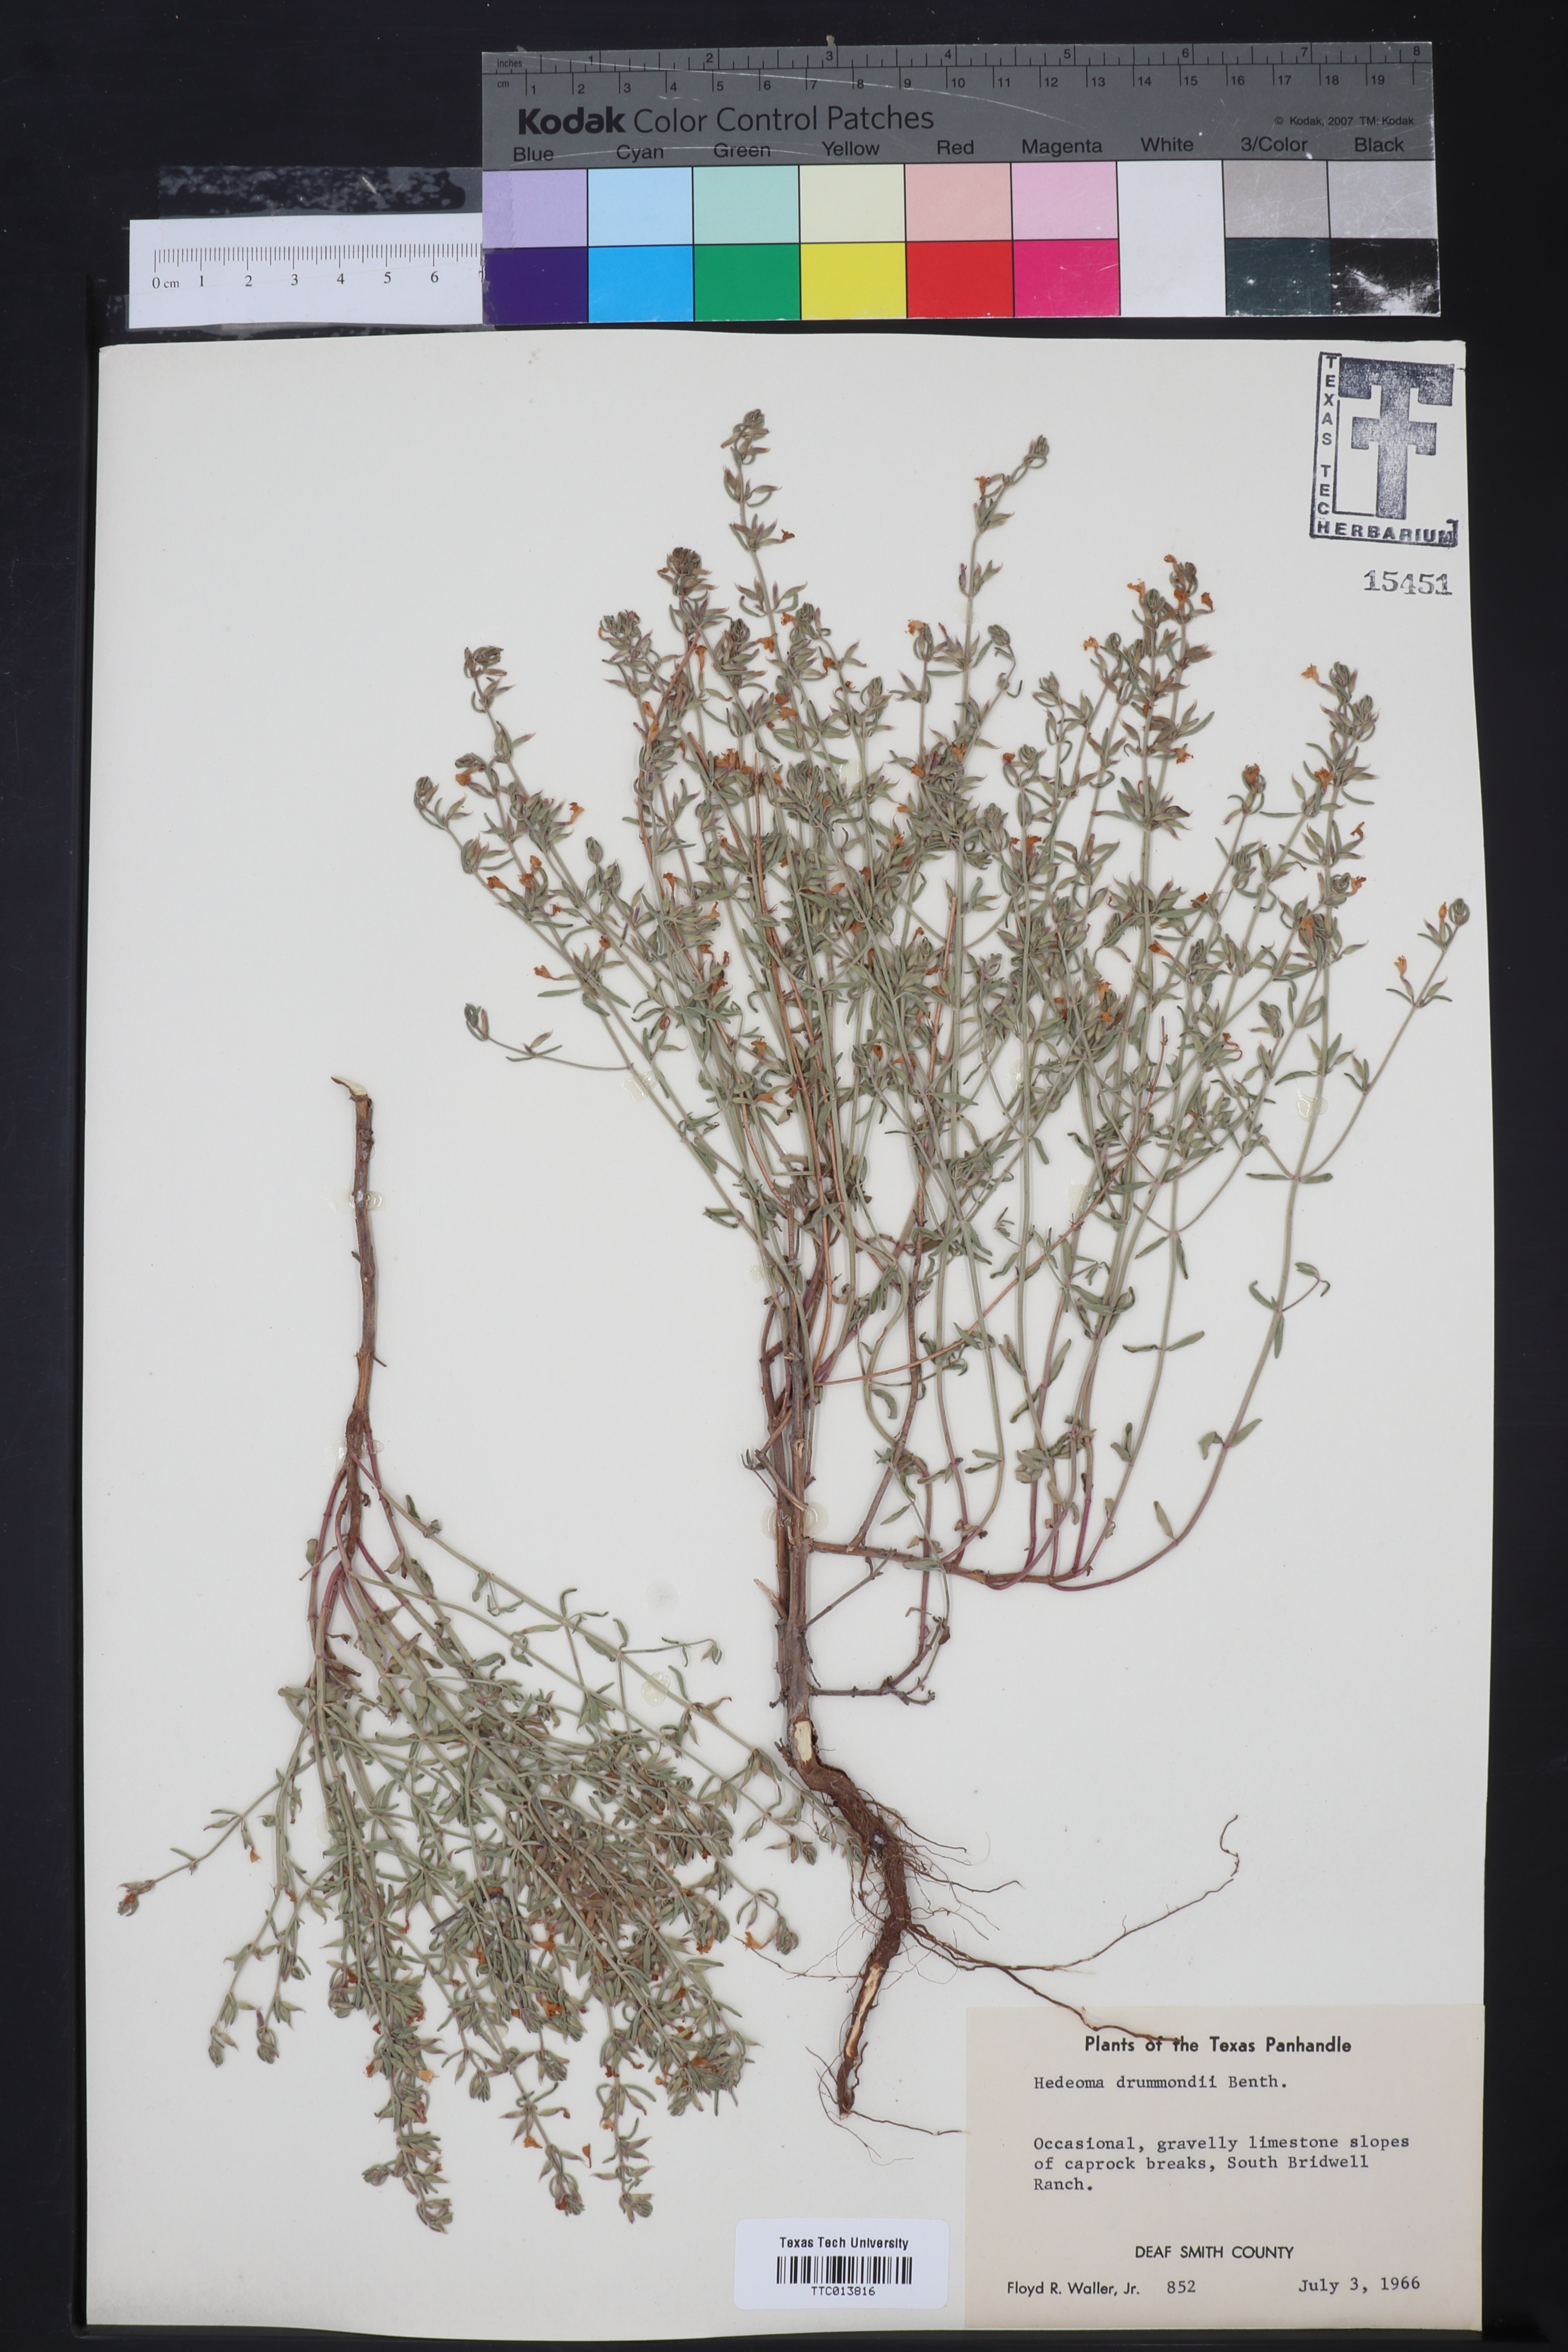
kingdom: Plantae
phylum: Tracheophyta
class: Magnoliopsida
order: Lamiales
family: Lamiaceae
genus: Hedeoma
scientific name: Hedeoma drummondii
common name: New mexico pennyroyal
